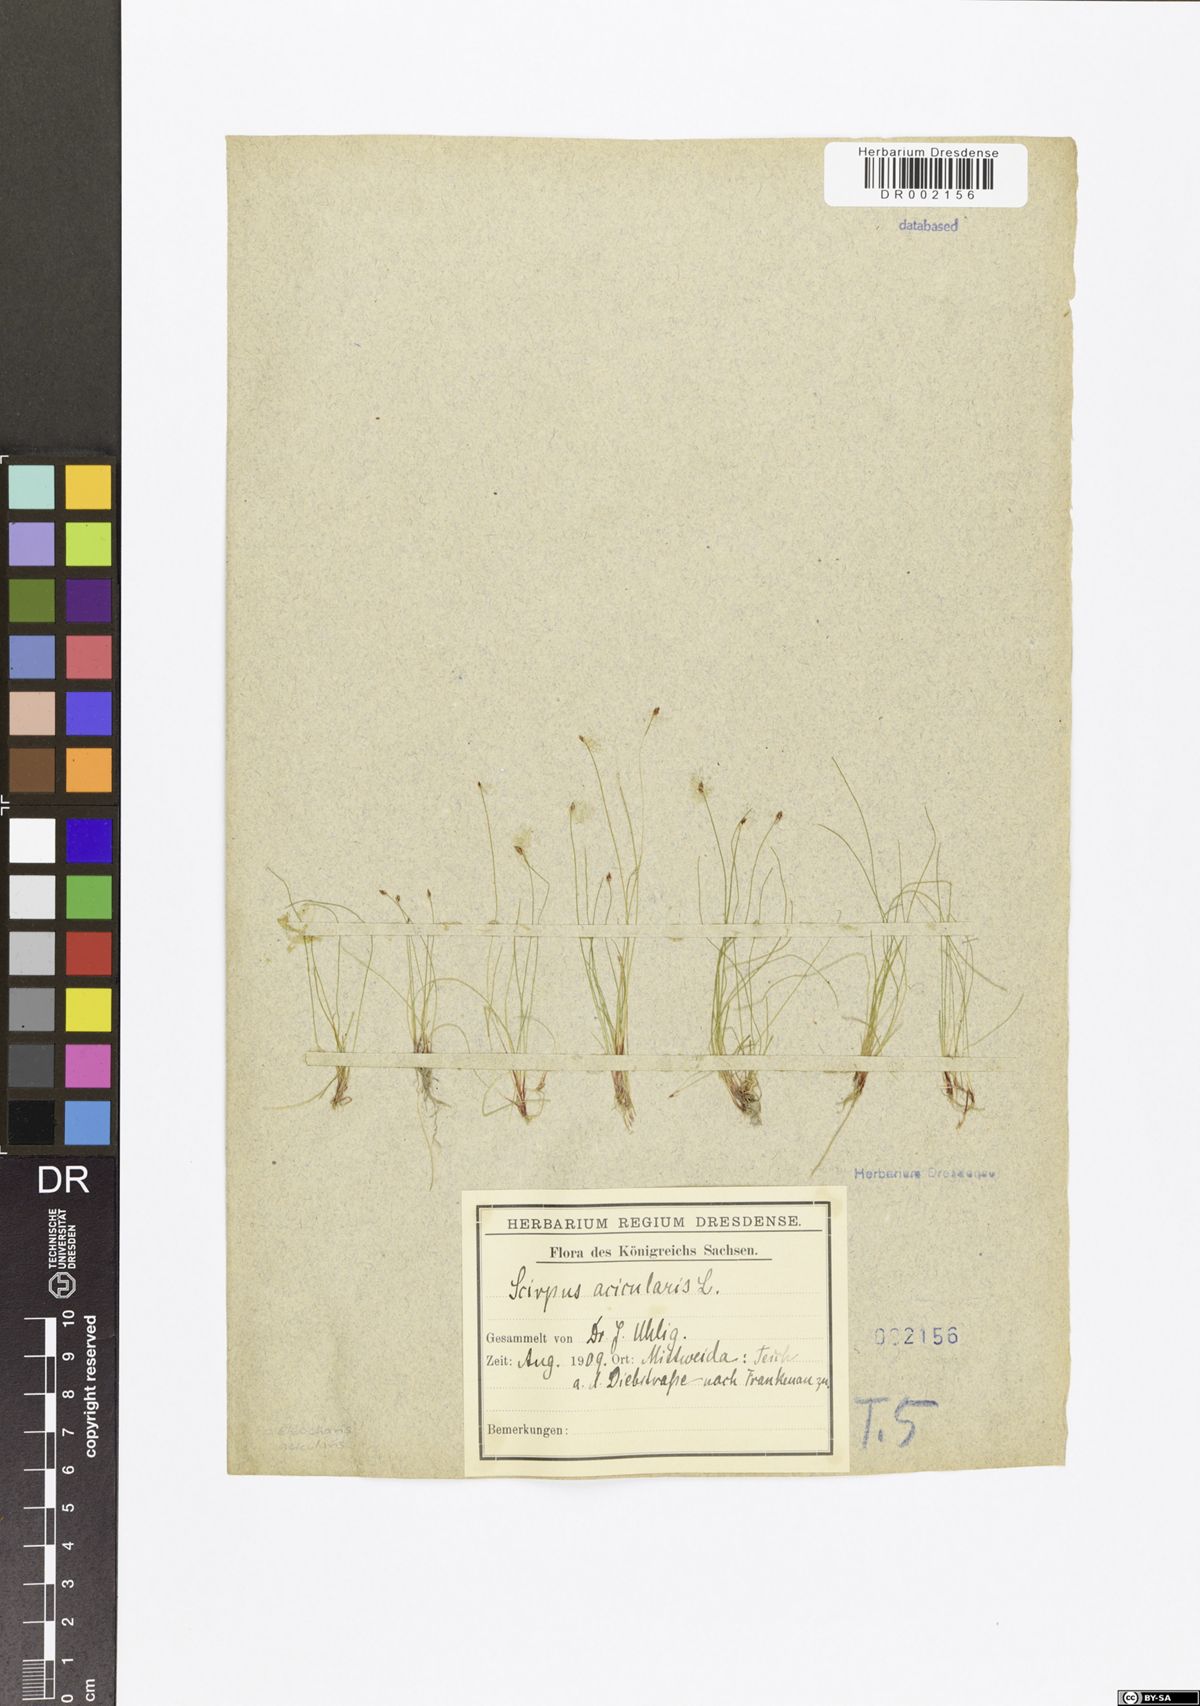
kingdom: Plantae
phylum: Tracheophyta
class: Liliopsida
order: Poales
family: Cyperaceae
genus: Eleocharis
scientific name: Eleocharis acicularis
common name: Needle spike-rush
